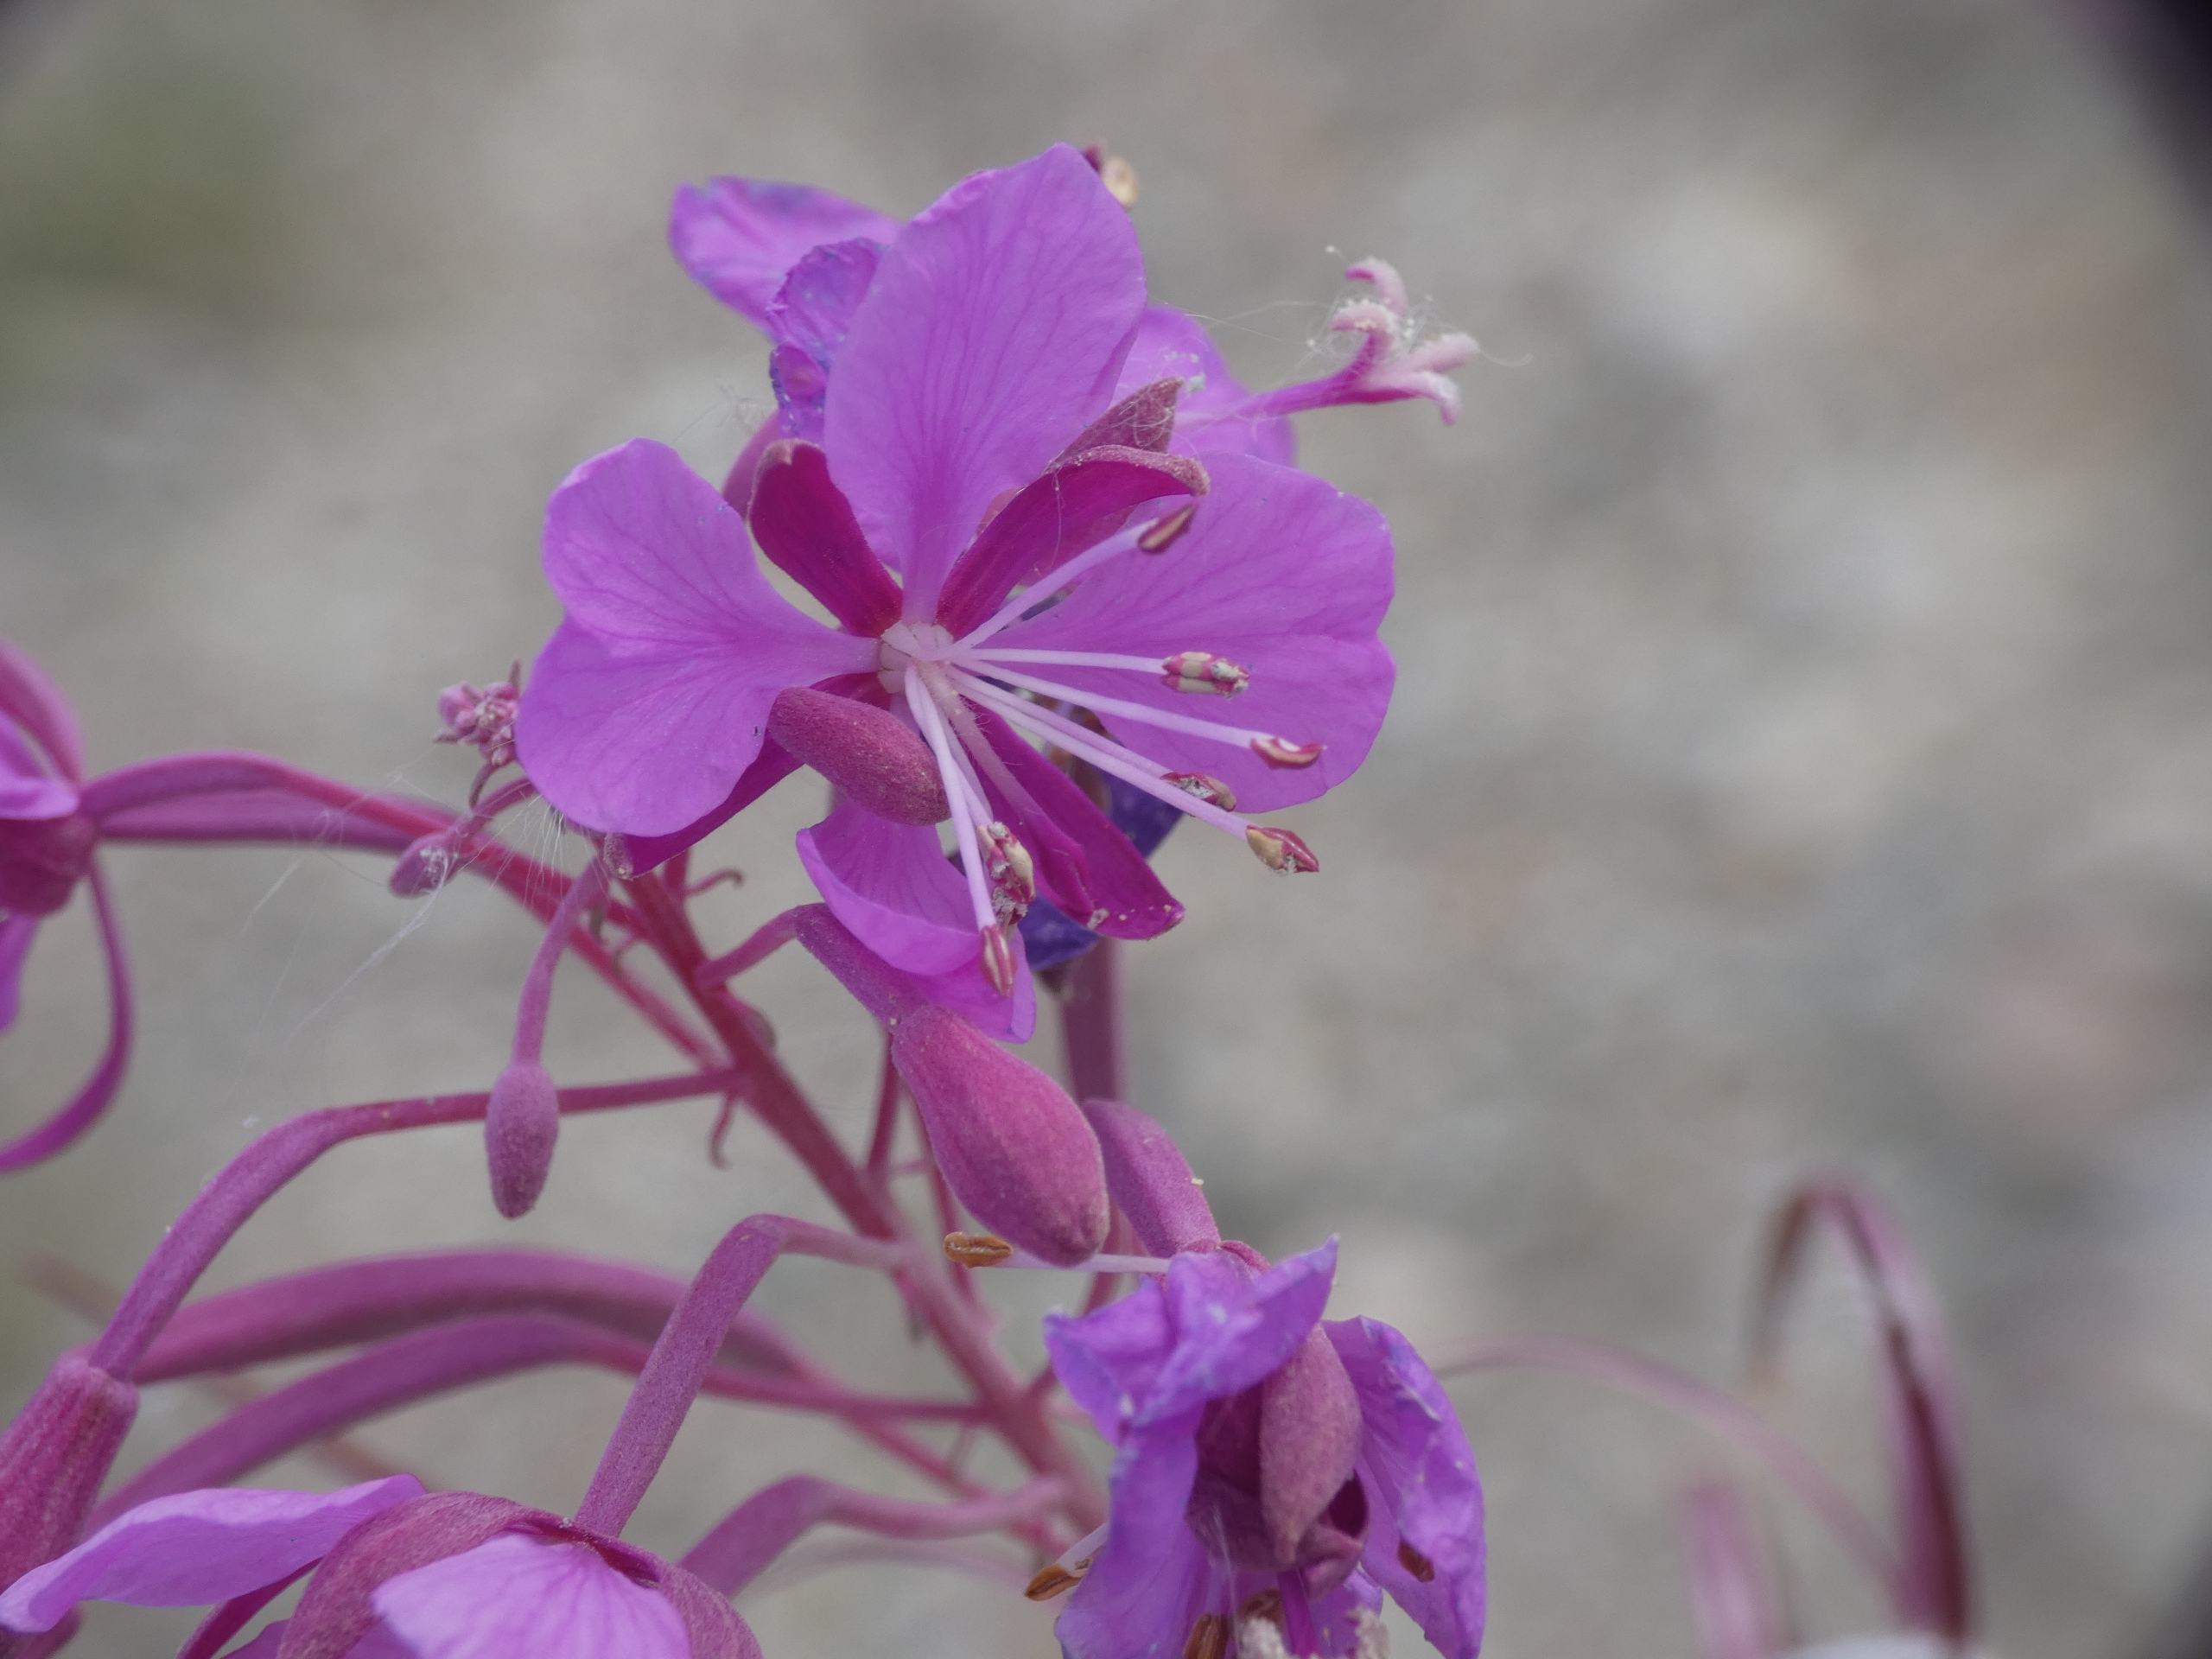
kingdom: Plantae
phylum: Tracheophyta
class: Magnoliopsida
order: Myrtales
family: Onagraceae
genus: Chamaenerion
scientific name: Chamaenerion angustifolium
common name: Gederams
